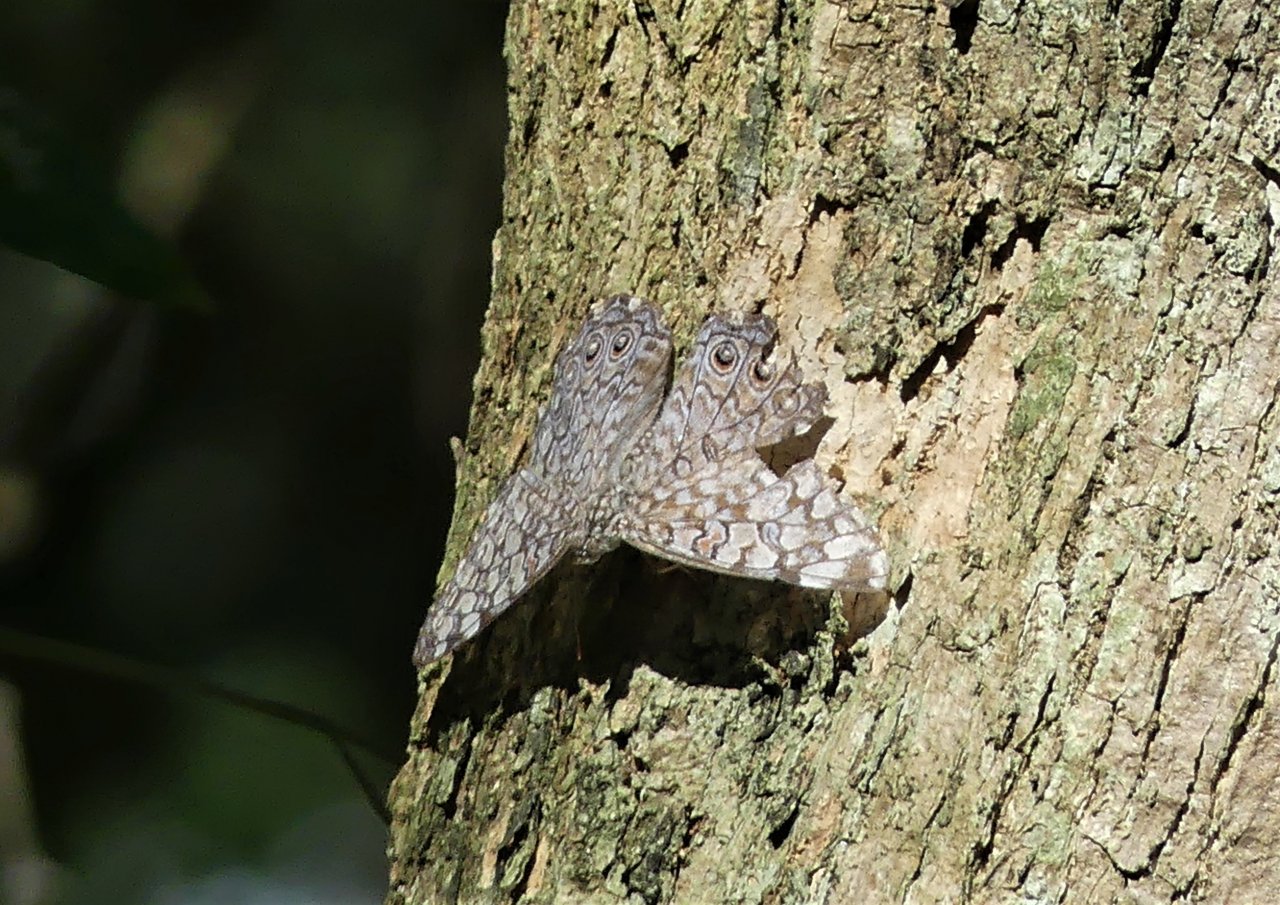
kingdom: Animalia
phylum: Arthropoda
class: Insecta
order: Lepidoptera
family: Nymphalidae
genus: Hamadryas
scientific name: Hamadryas februa
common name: Gray Cracker
